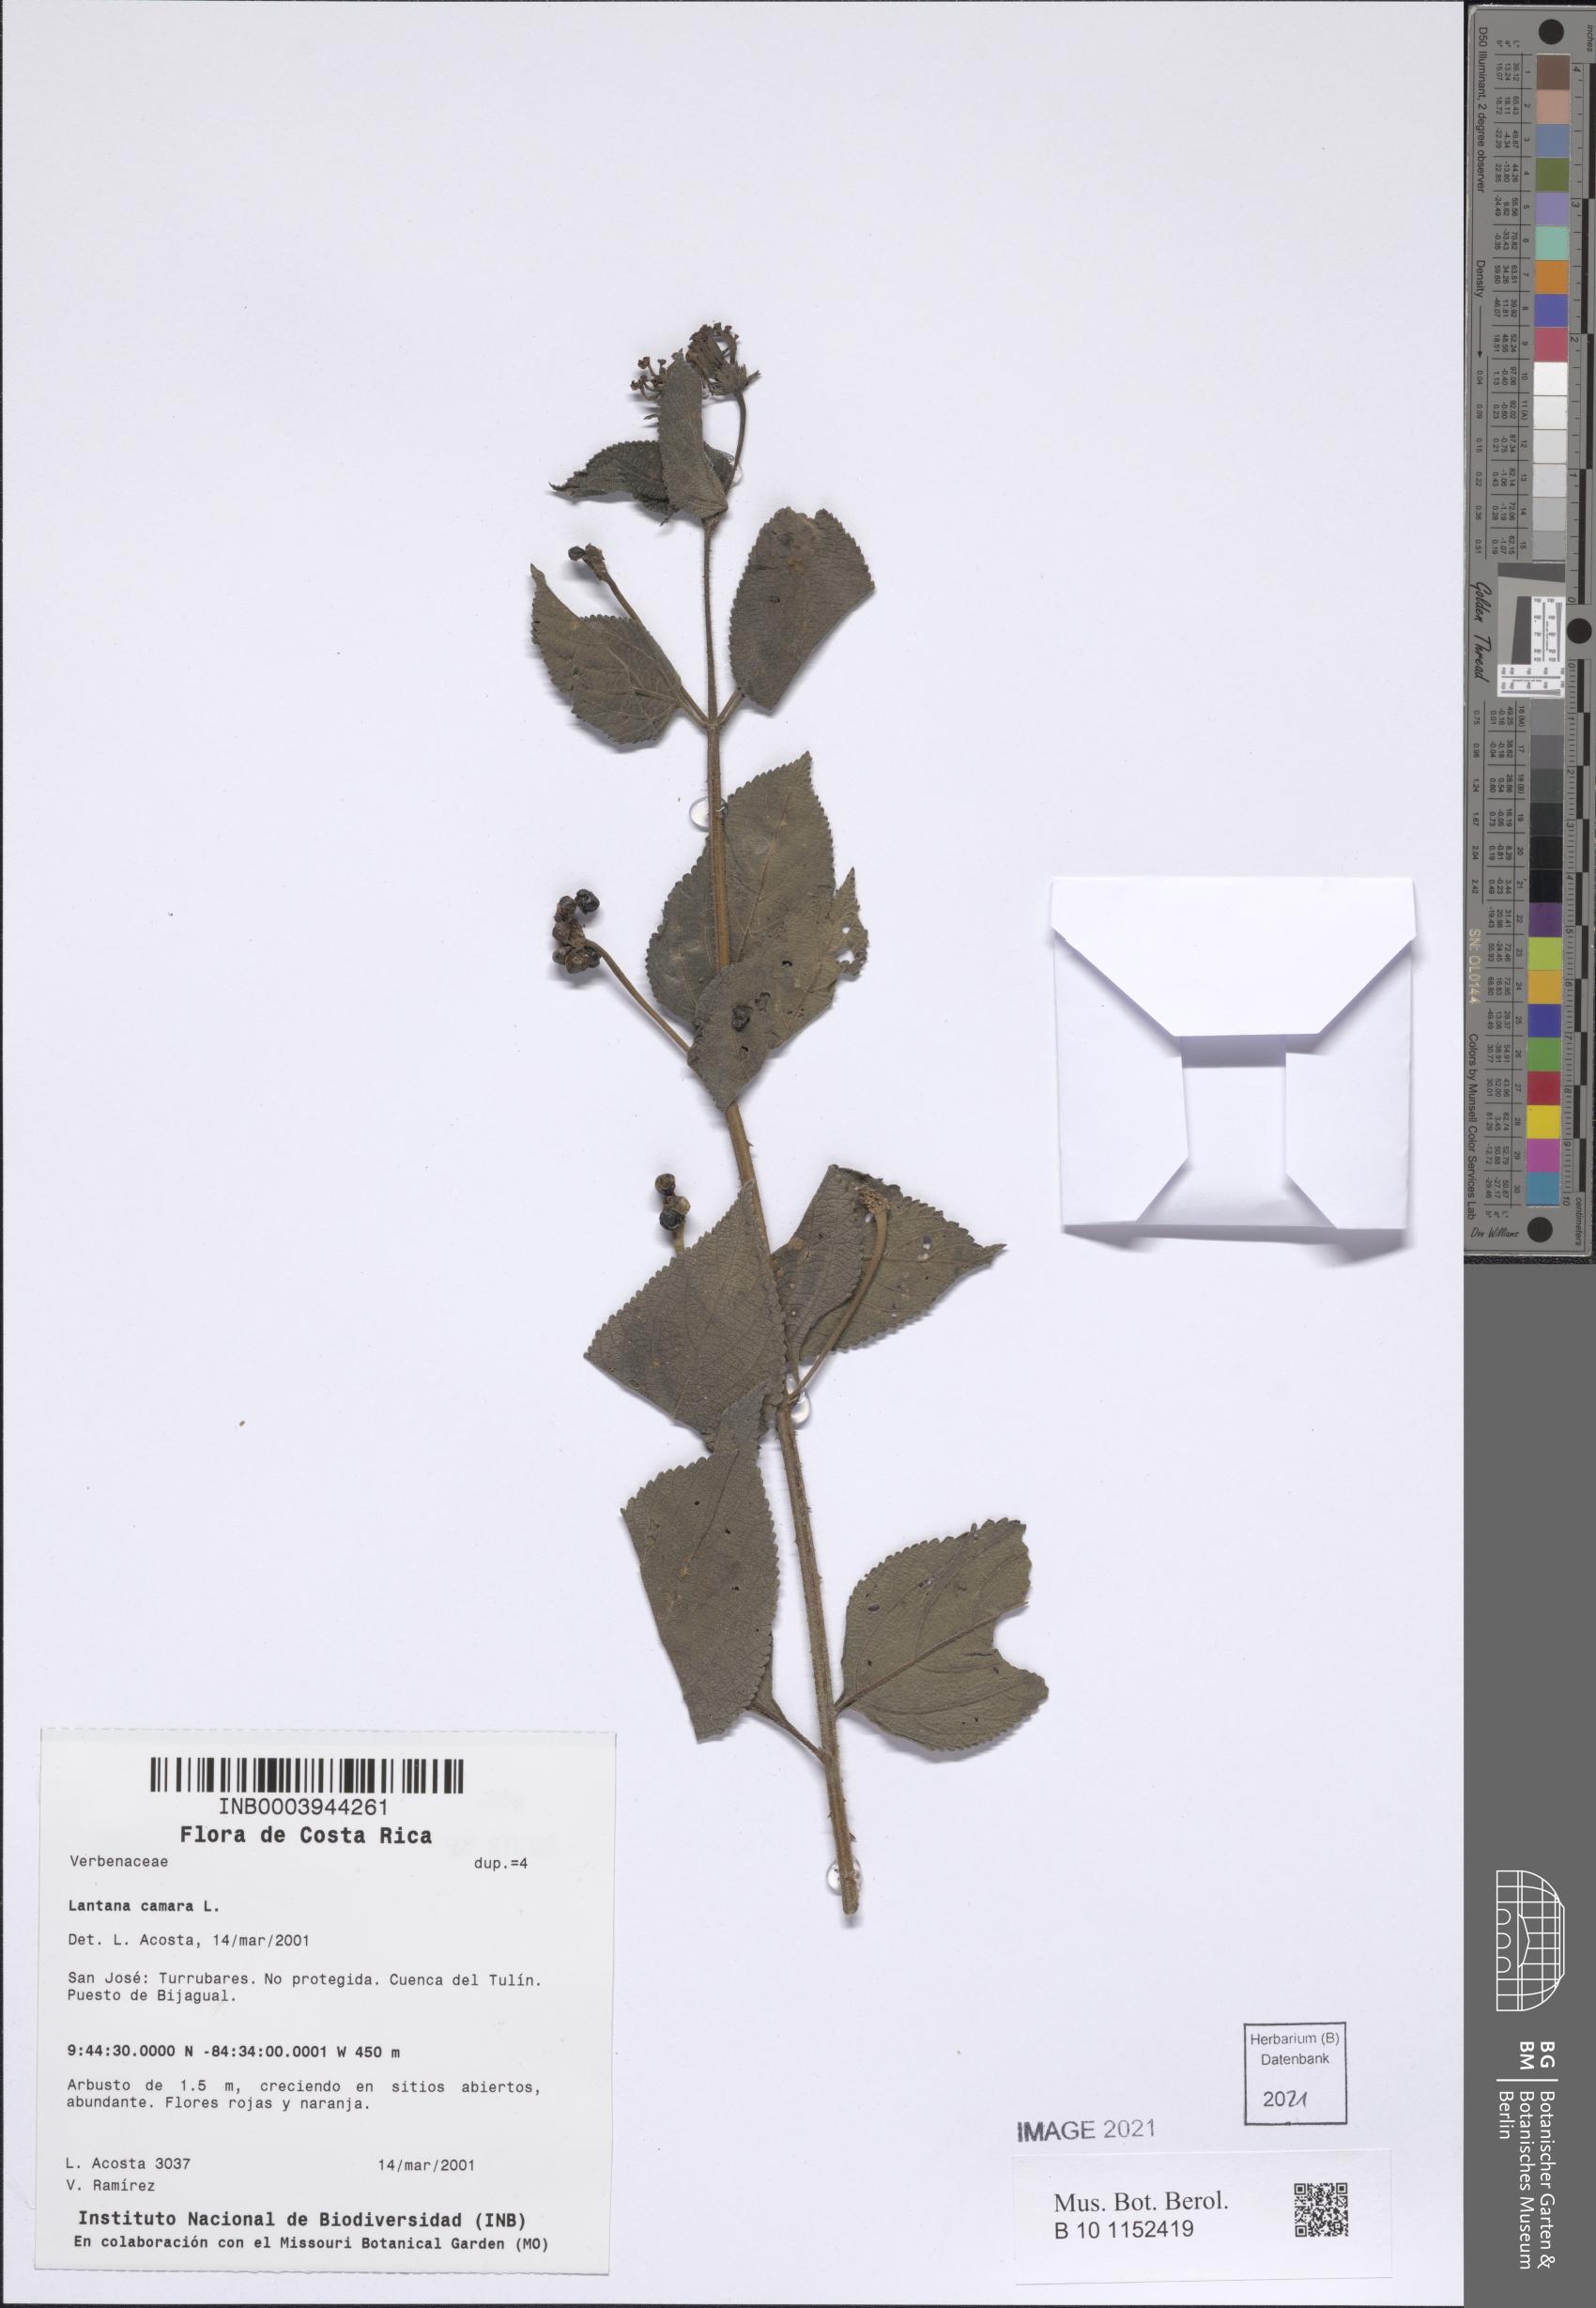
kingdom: Plantae
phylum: Tracheophyta
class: Magnoliopsida
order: Lamiales
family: Verbenaceae
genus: Lantana
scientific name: Lantana camara
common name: Lantana
